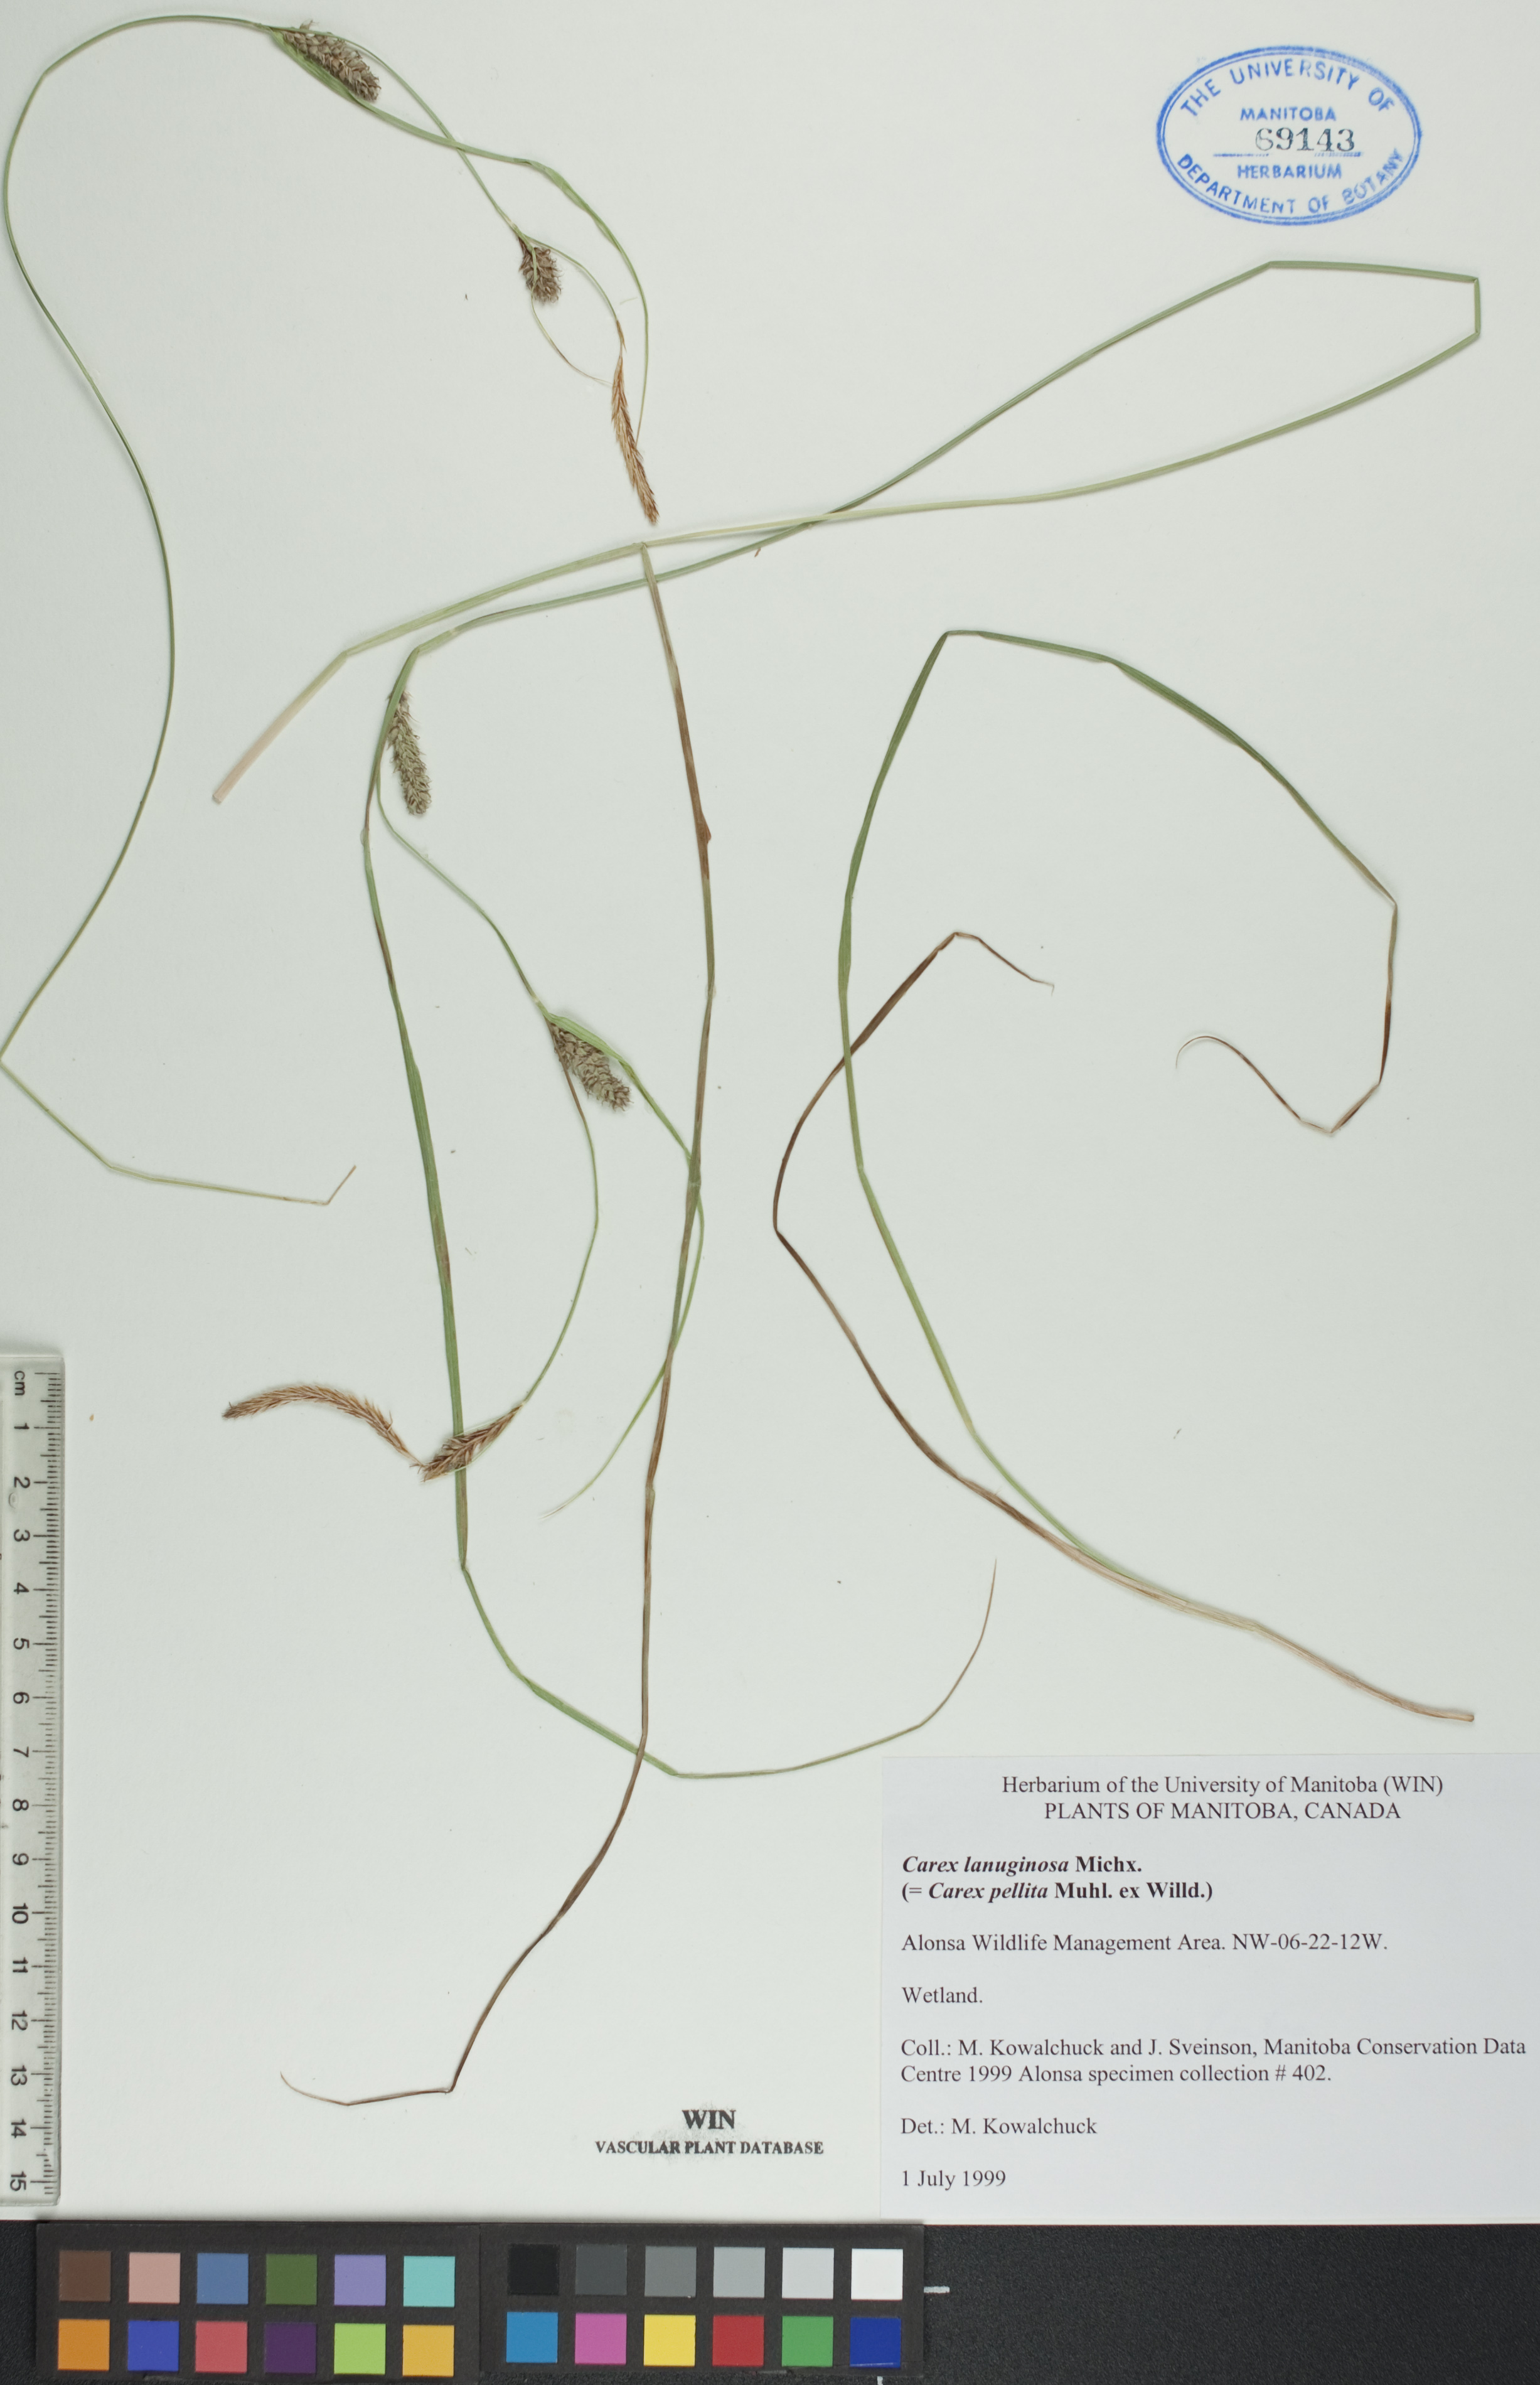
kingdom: Plantae
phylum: Tracheophyta
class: Liliopsida
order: Poales
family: Cyperaceae
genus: Carex
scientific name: Carex lasiocarpa
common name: Slender sedge
